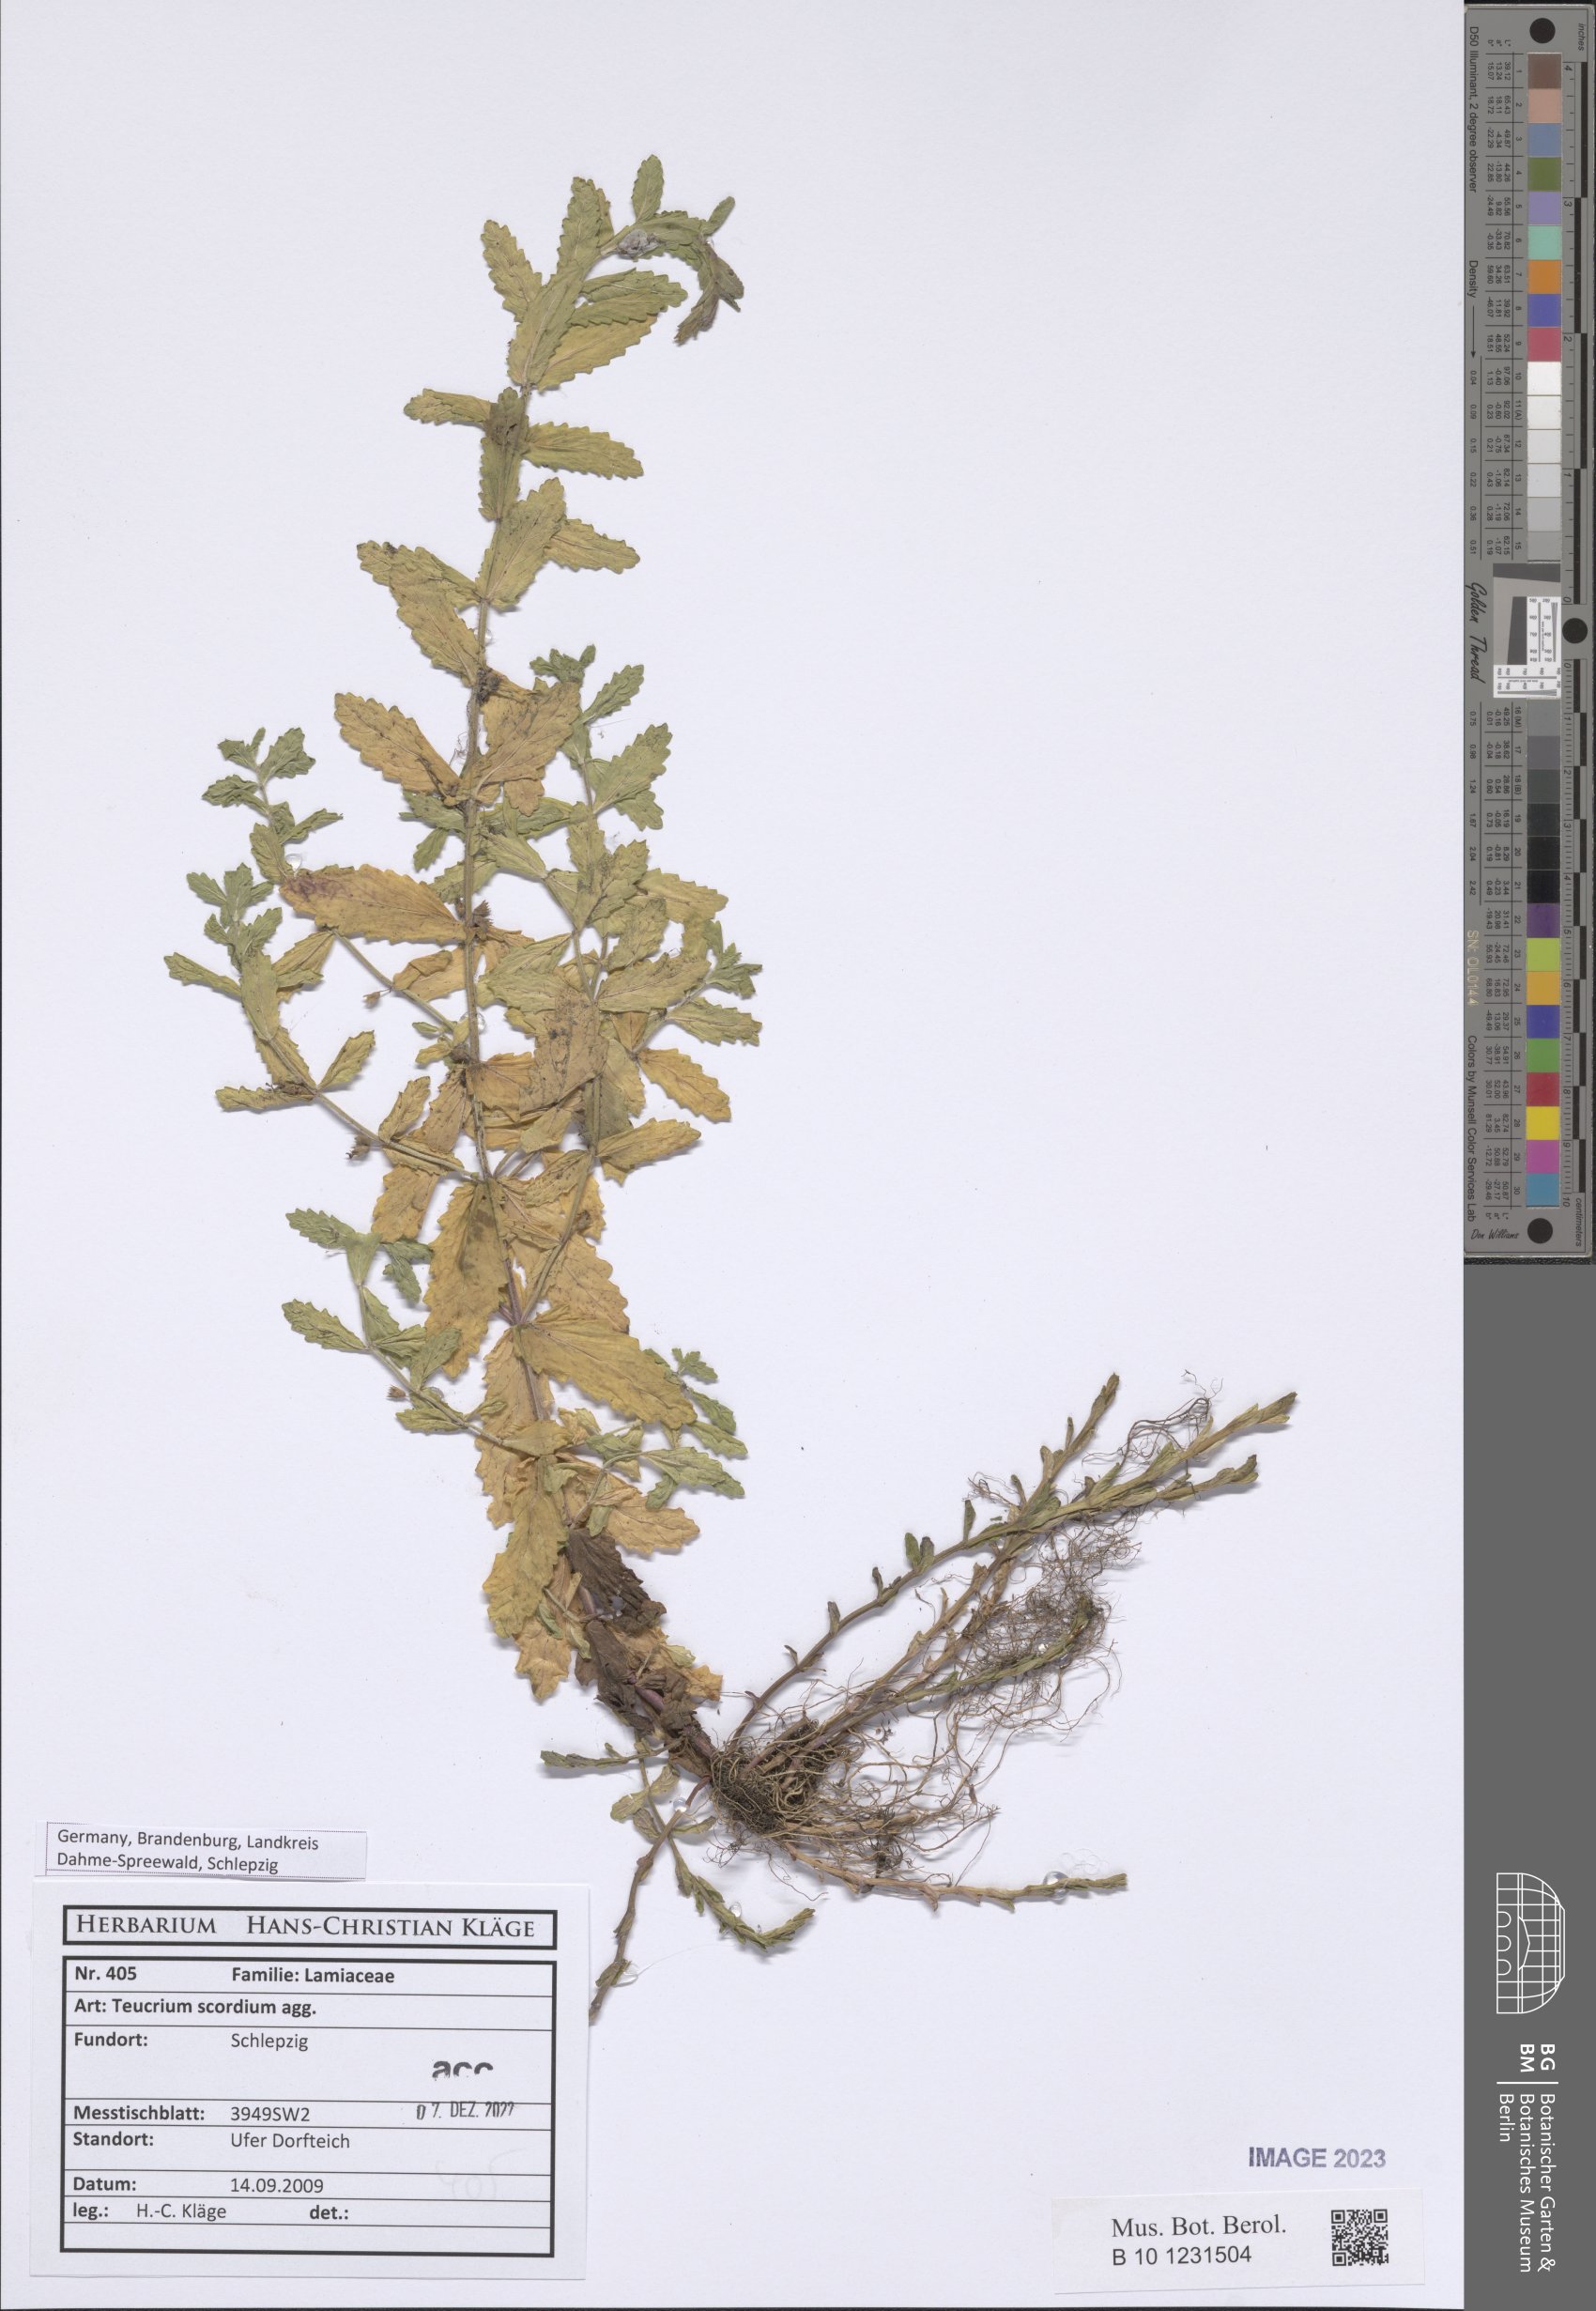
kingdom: Plantae
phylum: Tracheophyta
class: Magnoliopsida
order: Lamiales
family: Lamiaceae
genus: Teucrium
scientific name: Teucrium scordium
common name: Water germander
